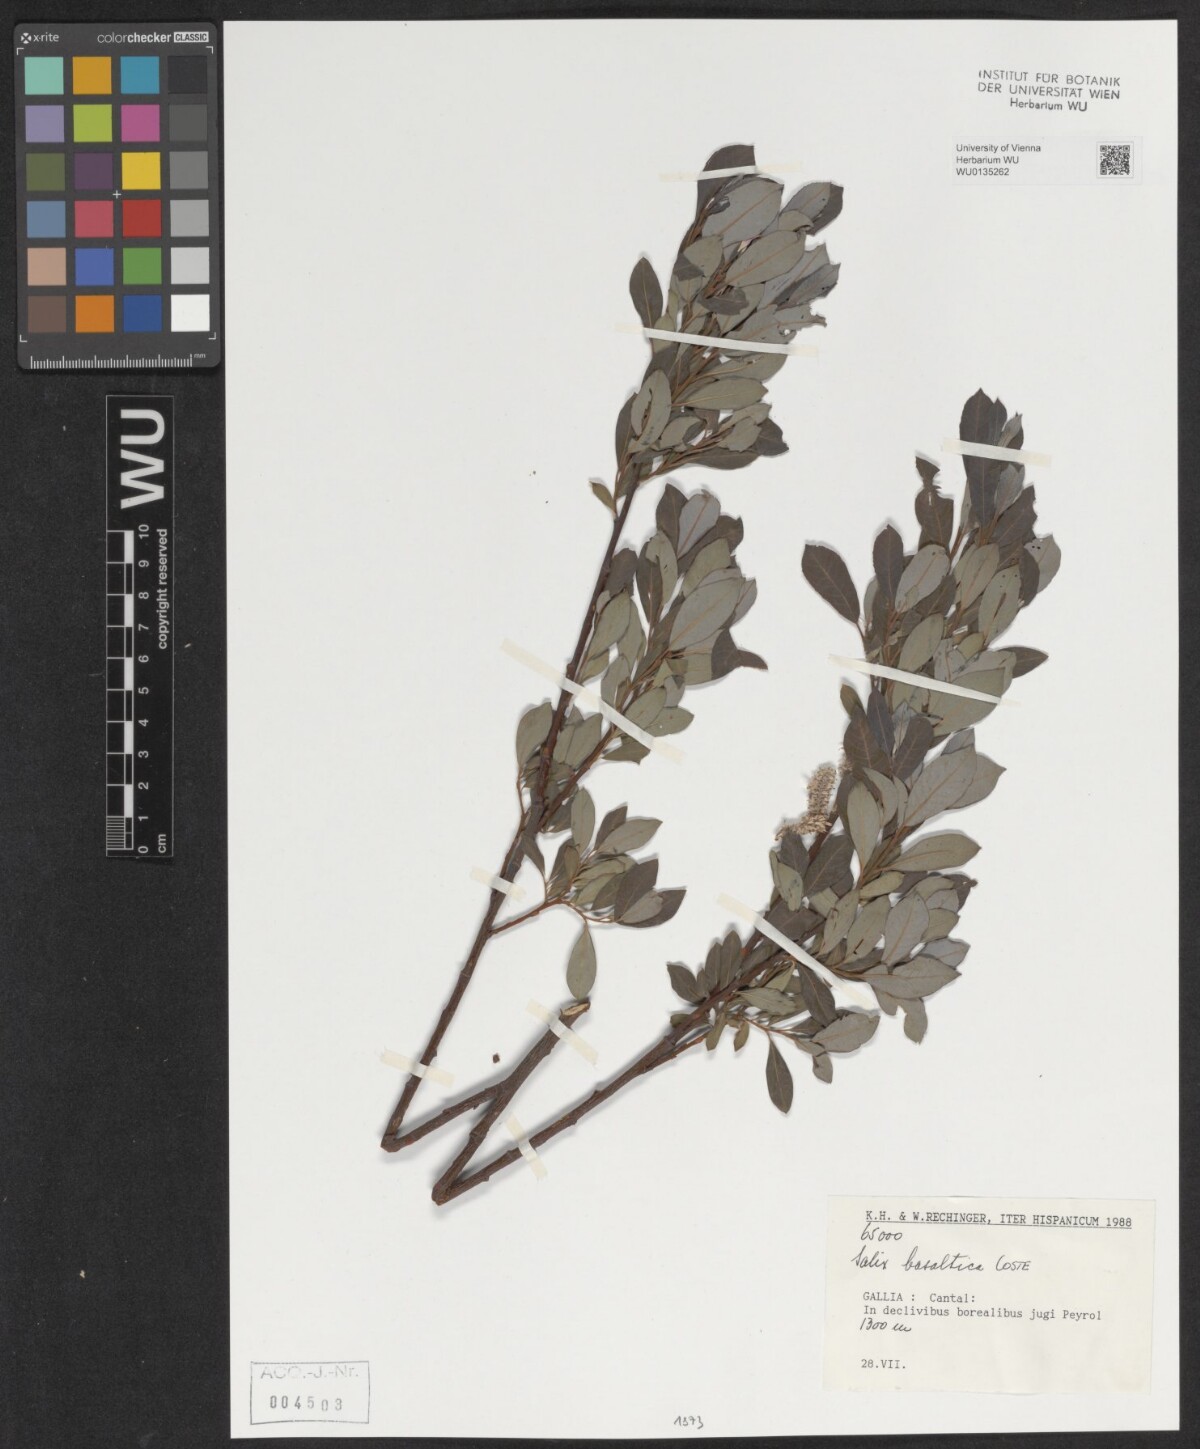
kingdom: Plantae
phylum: Tracheophyta
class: Magnoliopsida
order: Malpighiales
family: Salicaceae
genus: Salix
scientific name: Salix basaltica
